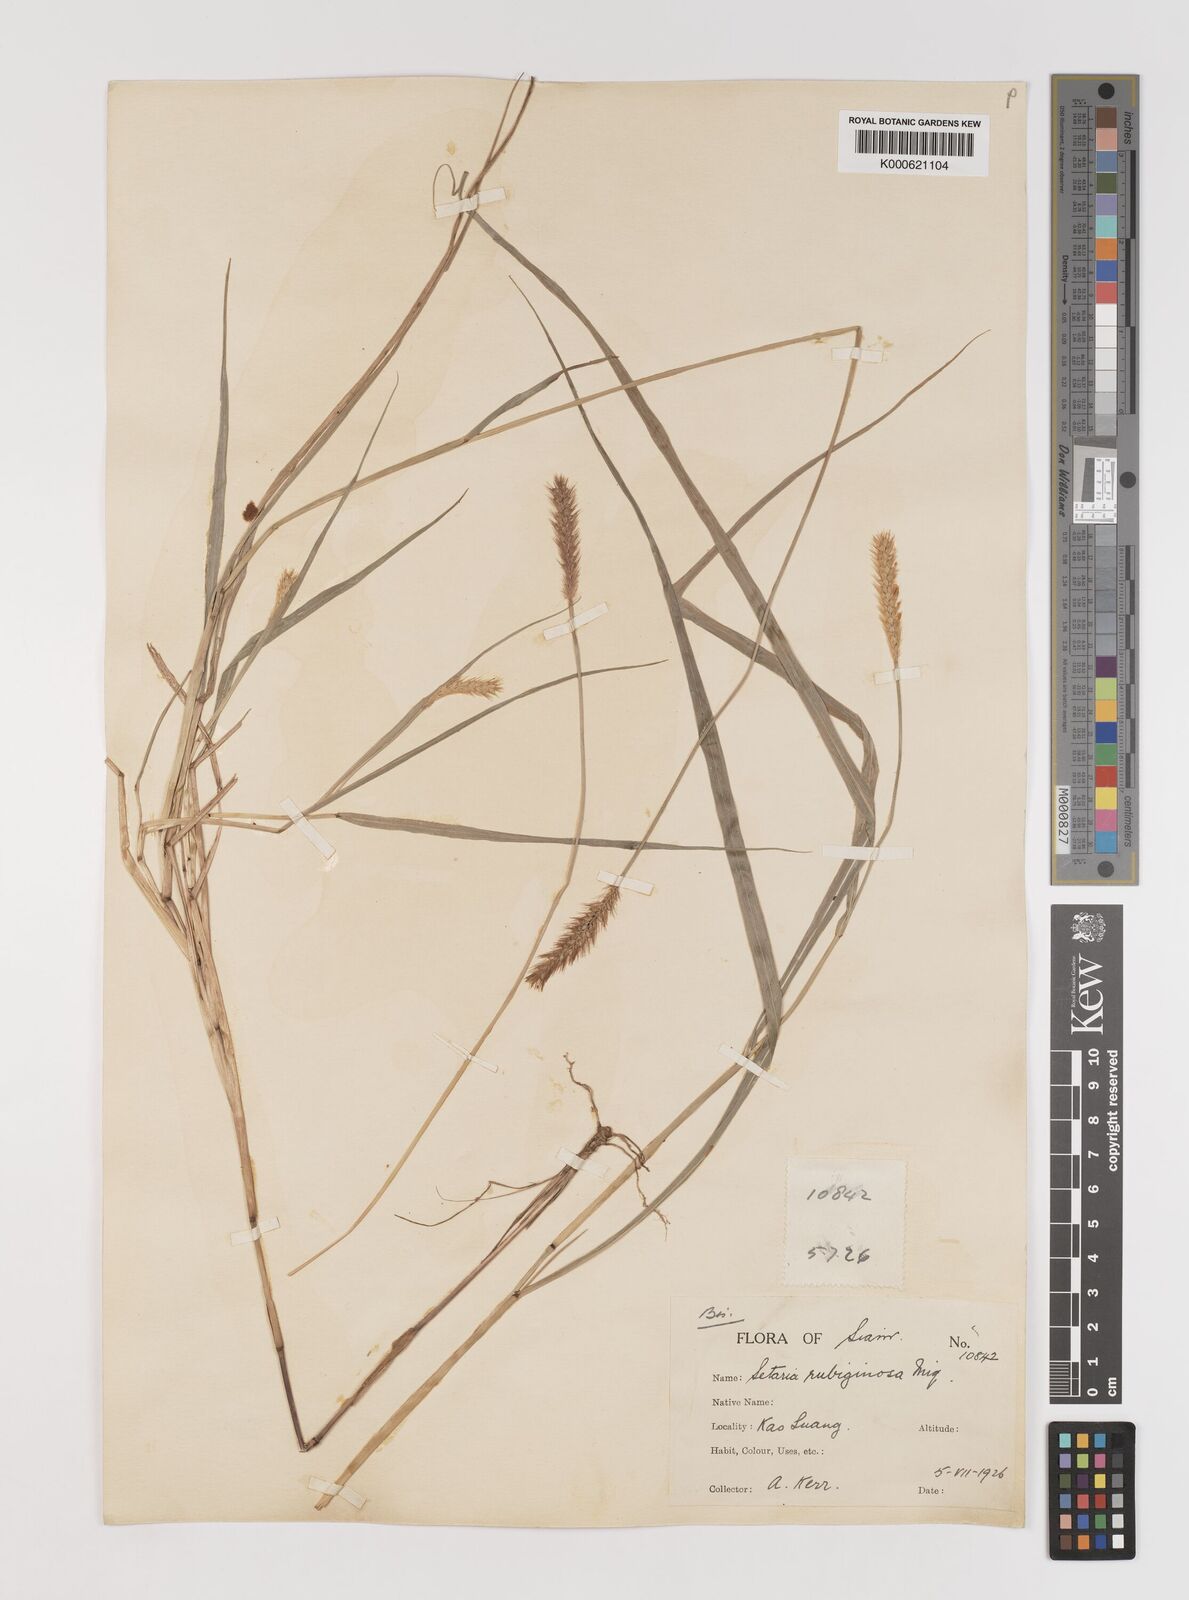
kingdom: Plantae
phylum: Tracheophyta
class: Liliopsida
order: Poales
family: Poaceae
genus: Setaria
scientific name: Setaria pumila
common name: Yellow bristle-grass
